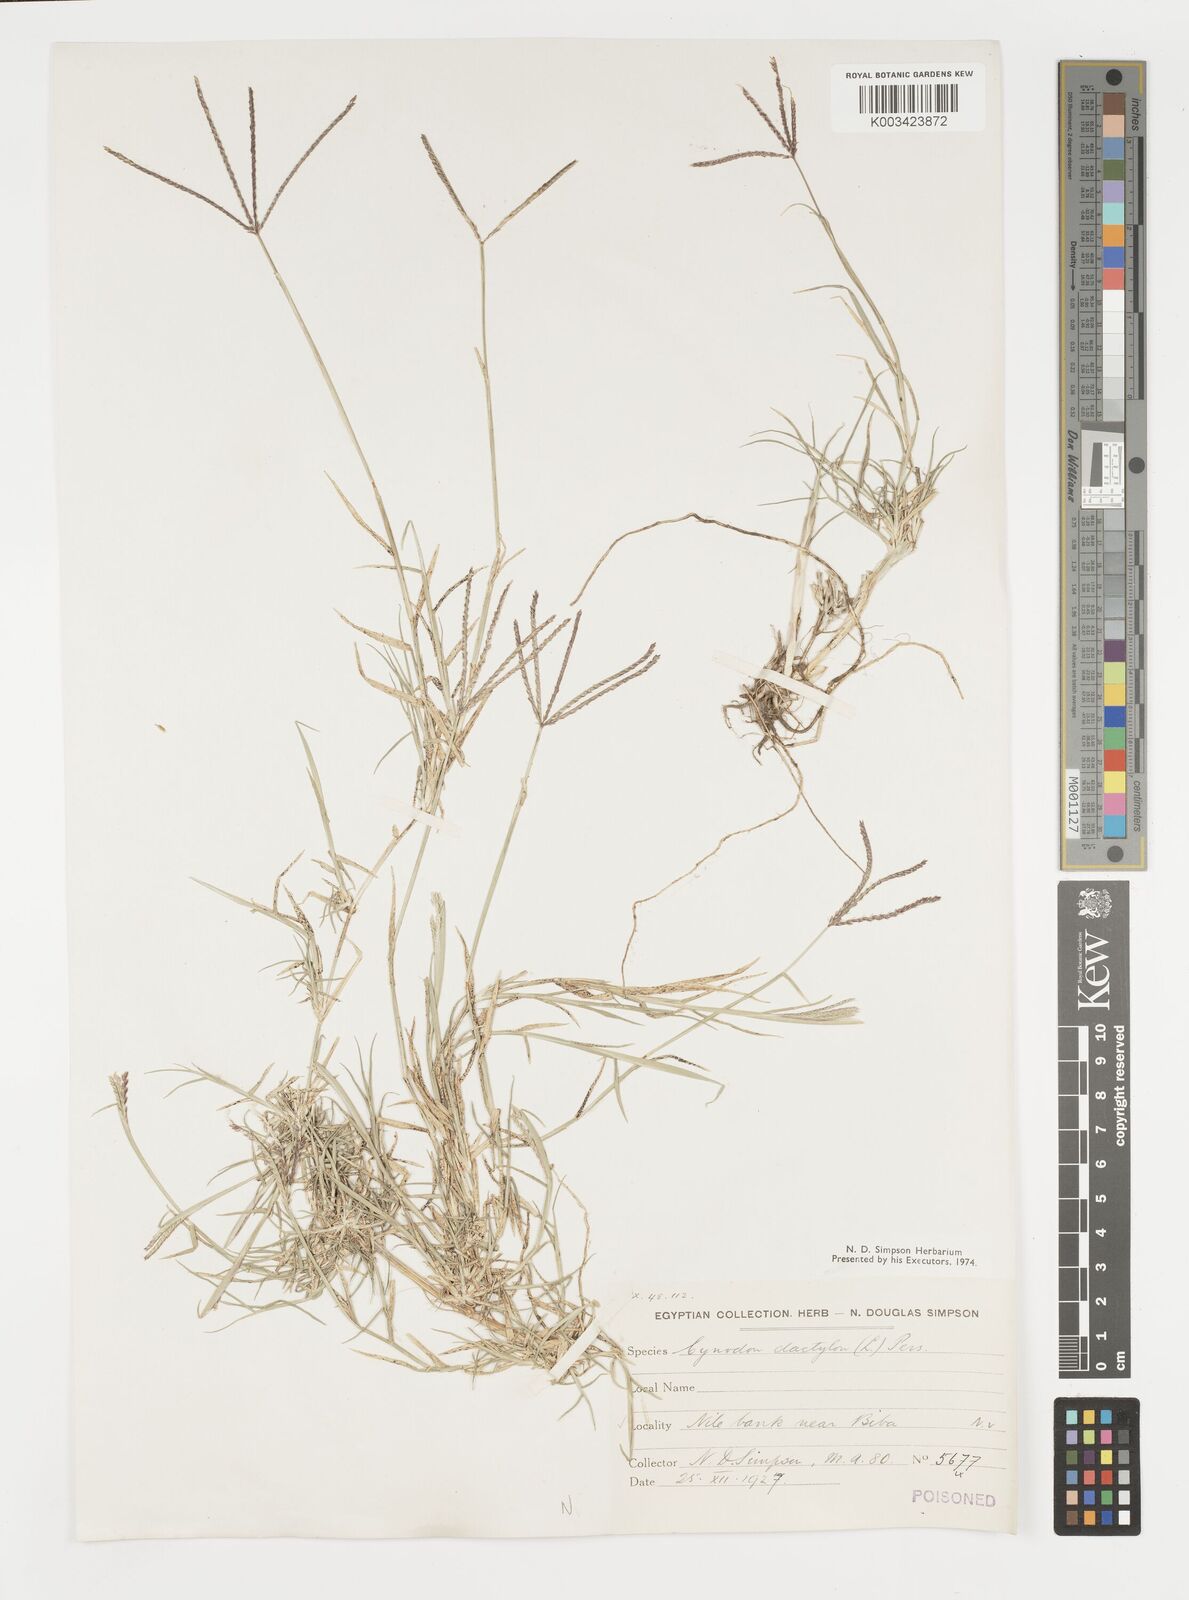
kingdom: Plantae
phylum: Tracheophyta
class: Liliopsida
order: Poales
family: Poaceae
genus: Cynodon
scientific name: Cynodon dactylon
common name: Bermuda grass
